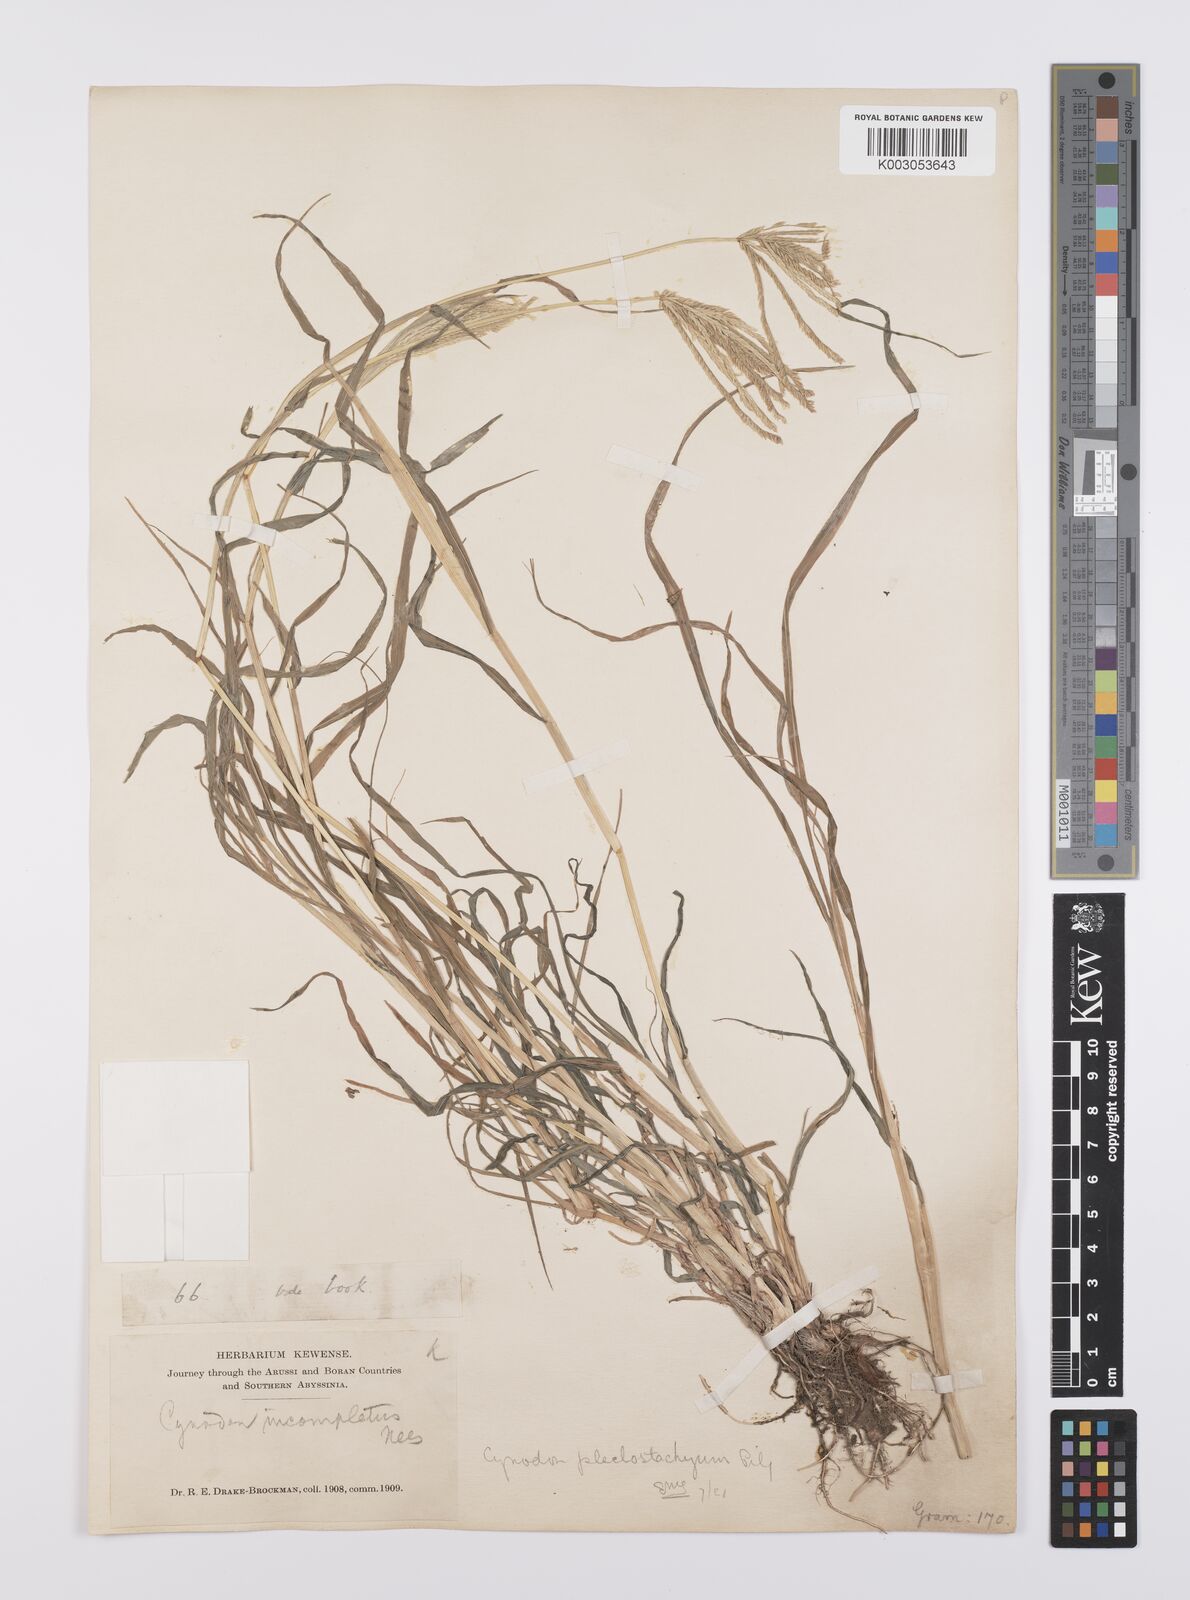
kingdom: Plantae
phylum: Tracheophyta
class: Liliopsida
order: Poales
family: Poaceae
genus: Cynodon
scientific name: Cynodon plectostachyus
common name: Stargrass
